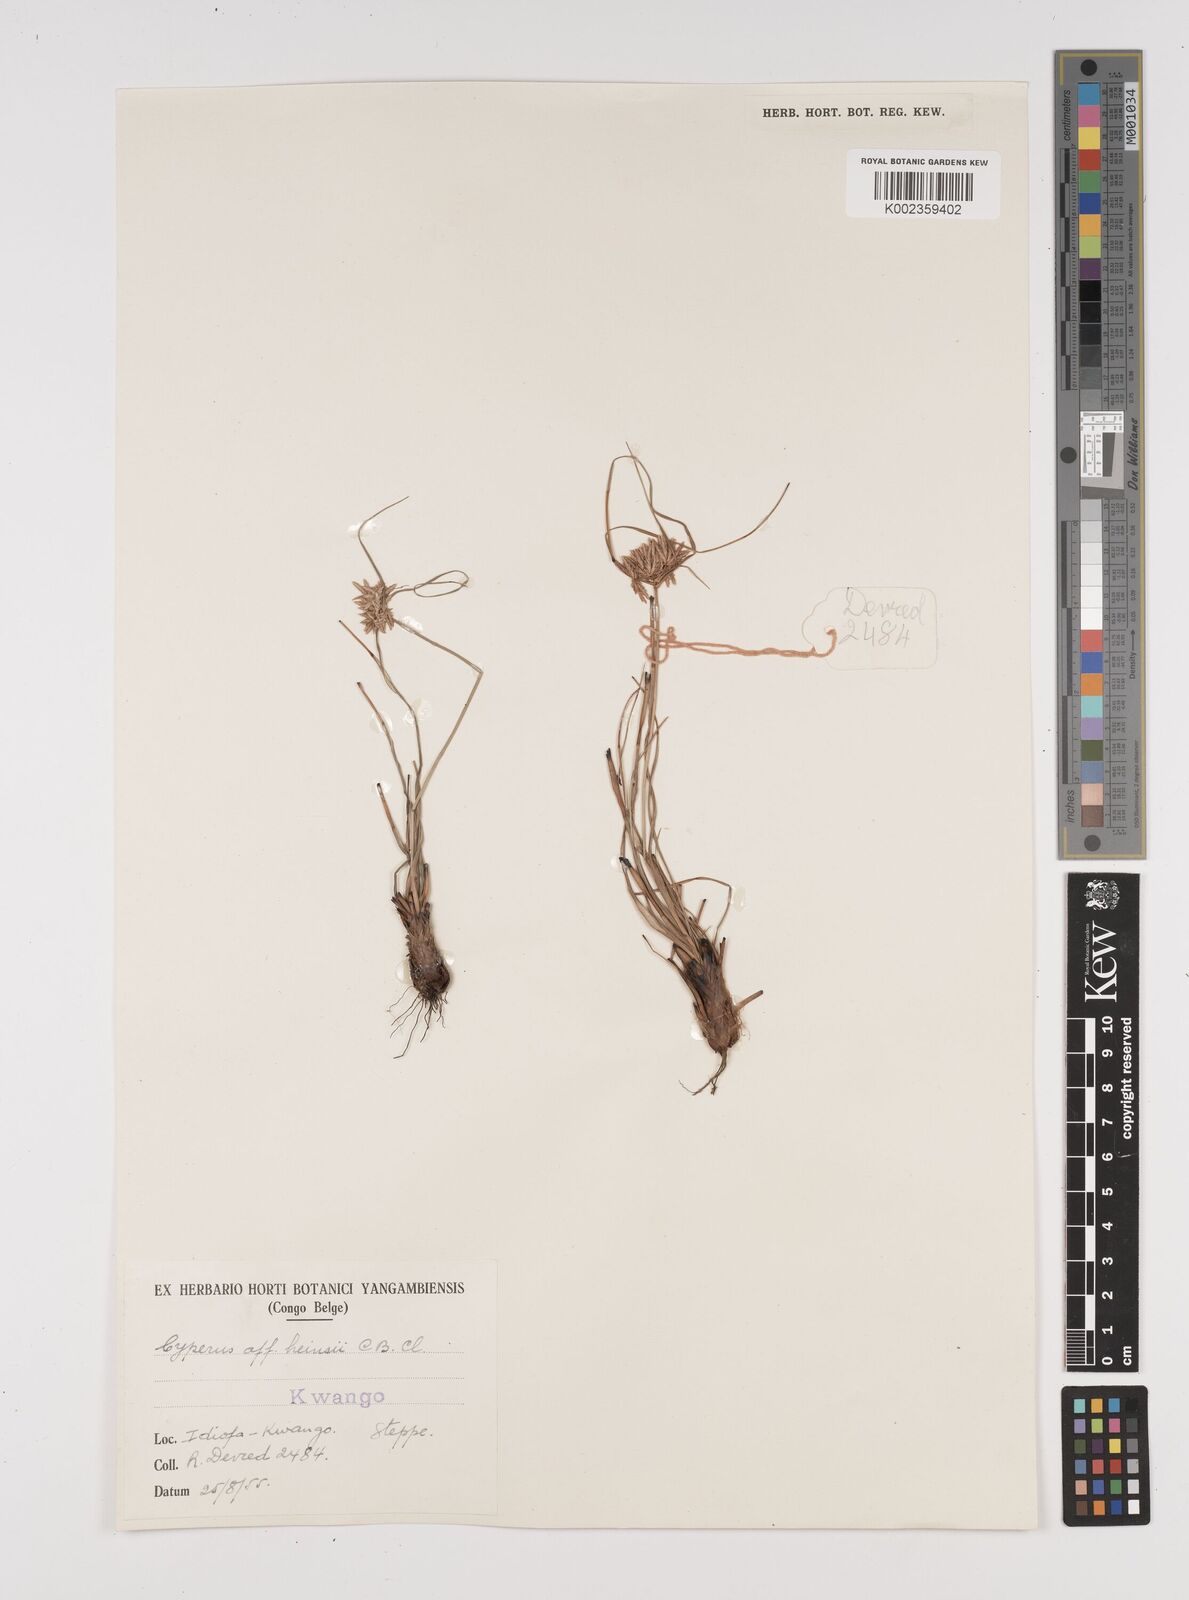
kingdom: Plantae
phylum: Tracheophyta
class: Liliopsida
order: Poales
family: Cyperaceae
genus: Cyperus
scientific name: Cyperus
